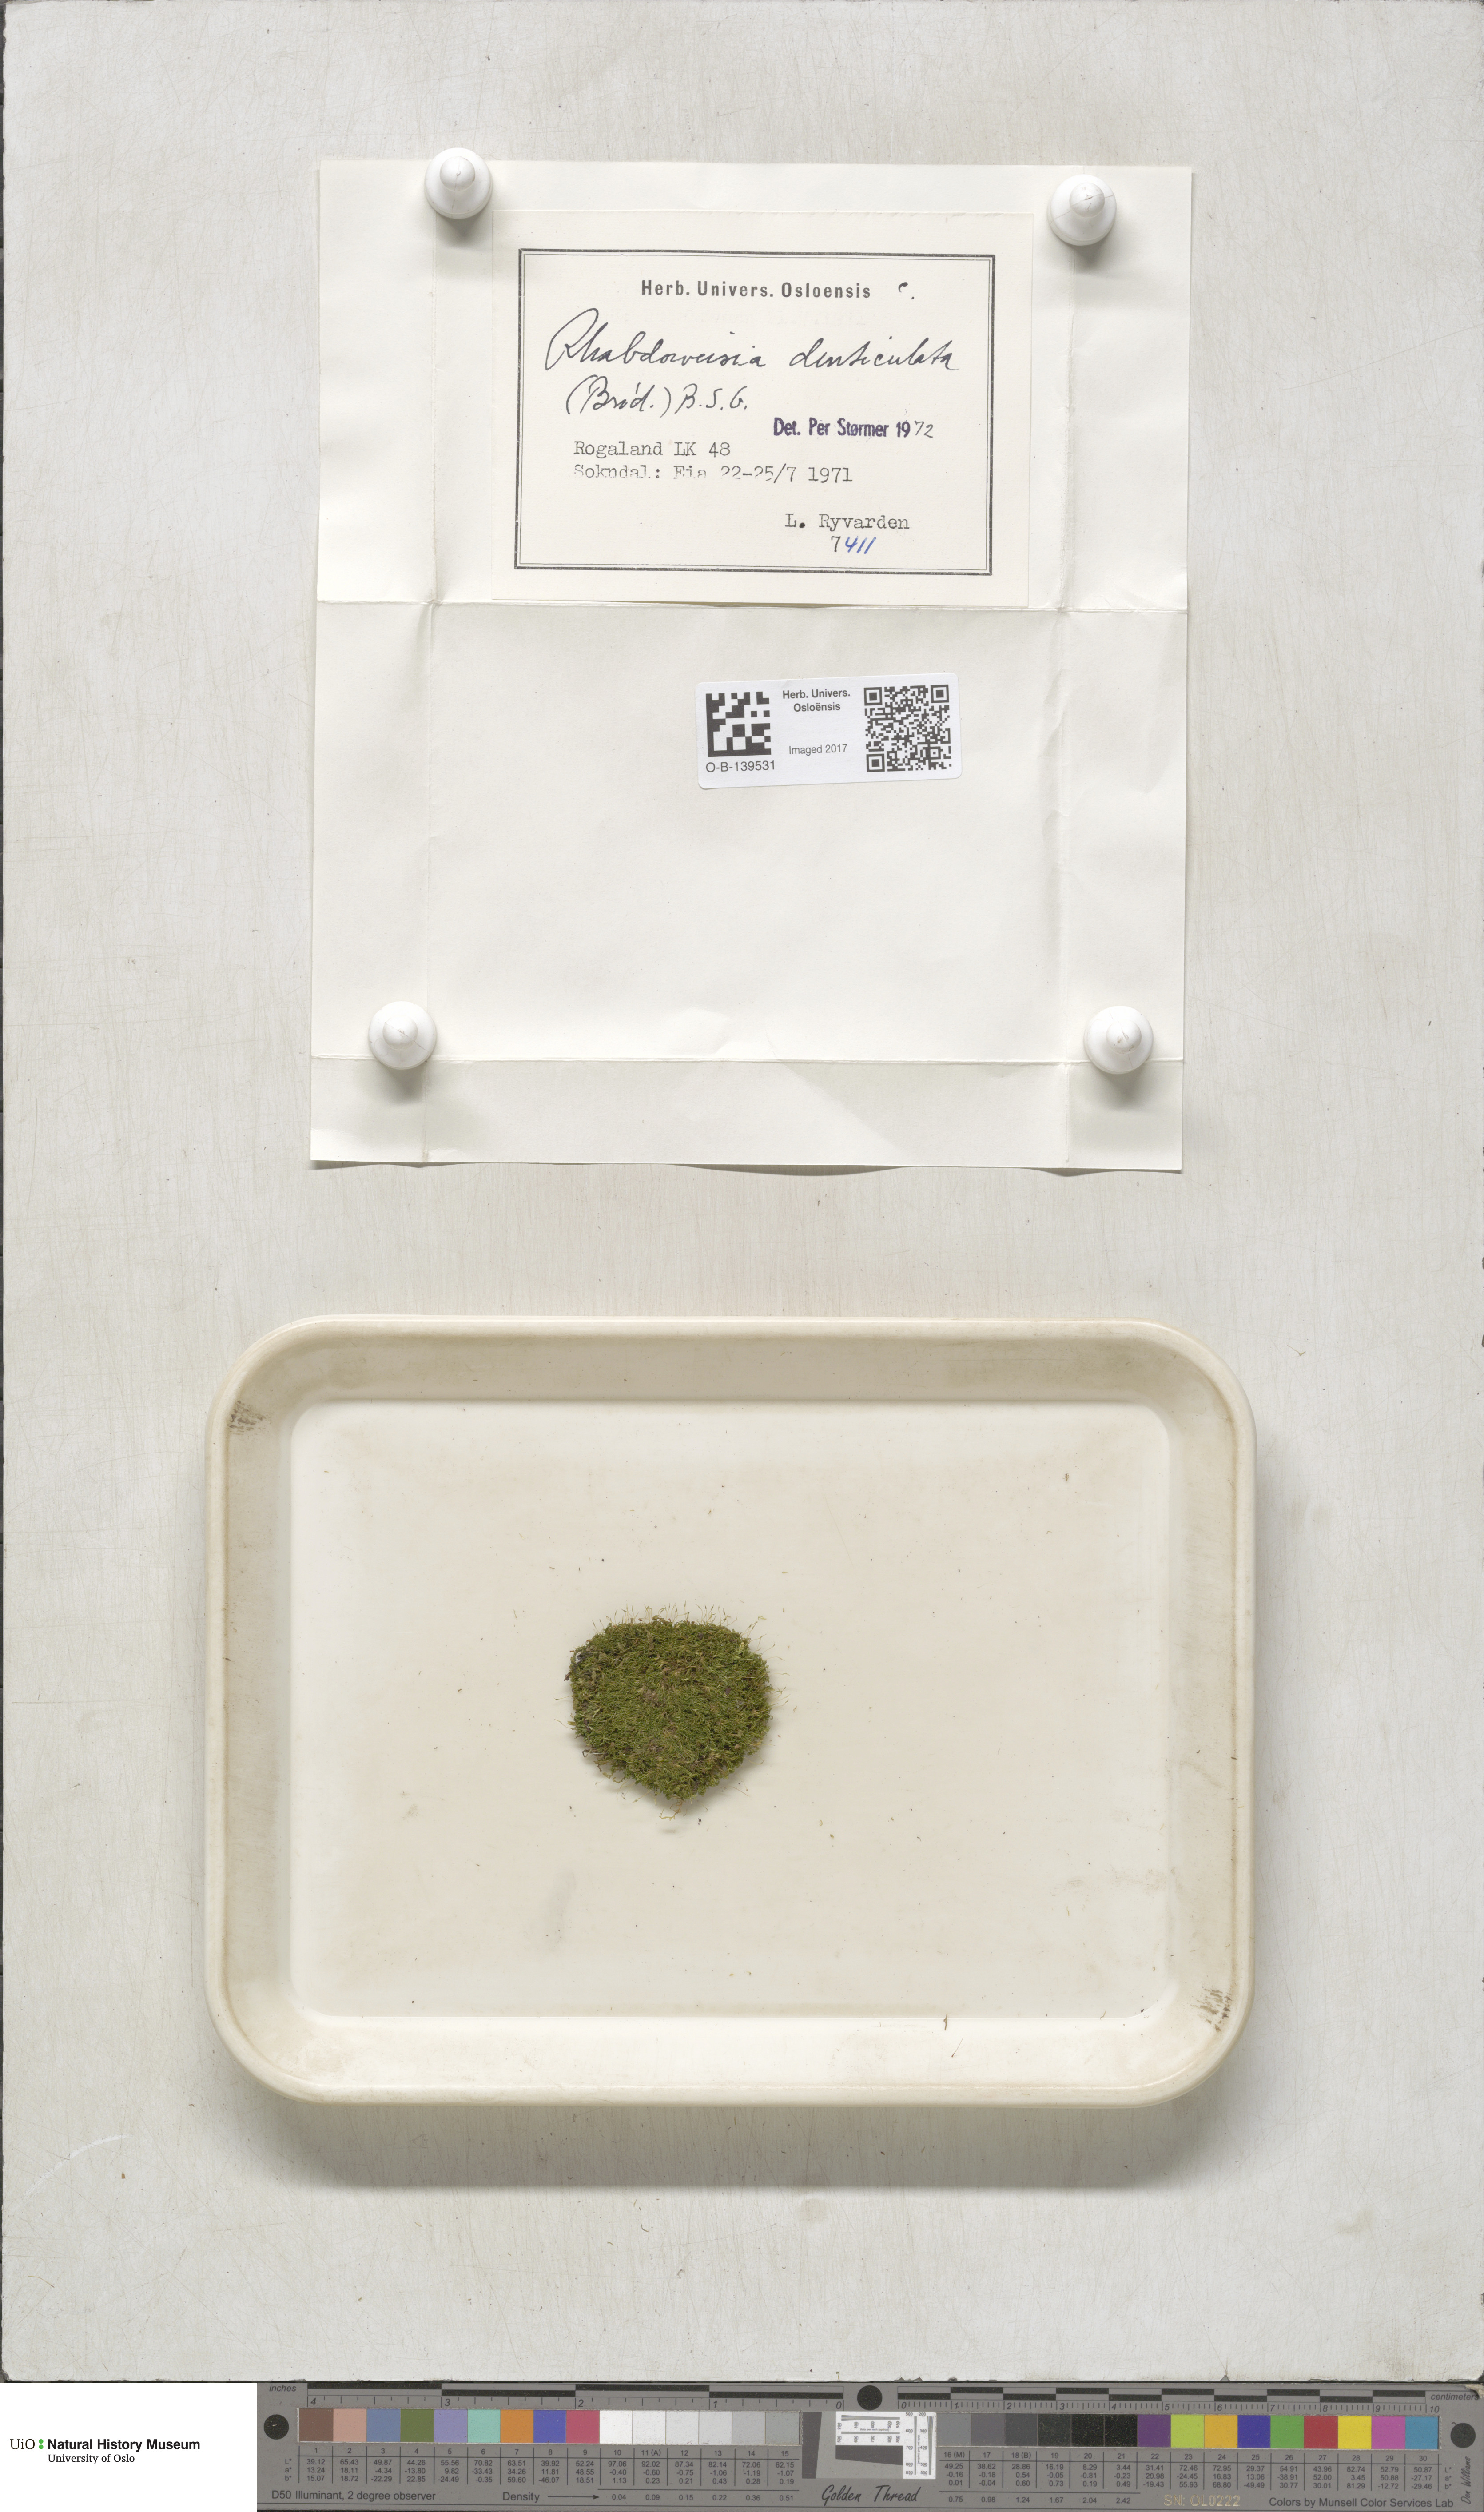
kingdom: Plantae
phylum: Bryophyta
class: Bryopsida
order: Dicranales
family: Rhabdoweisiaceae
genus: Rhabdoweisia
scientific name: Rhabdoweisia crispata
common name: Fine-toothed streak moss
